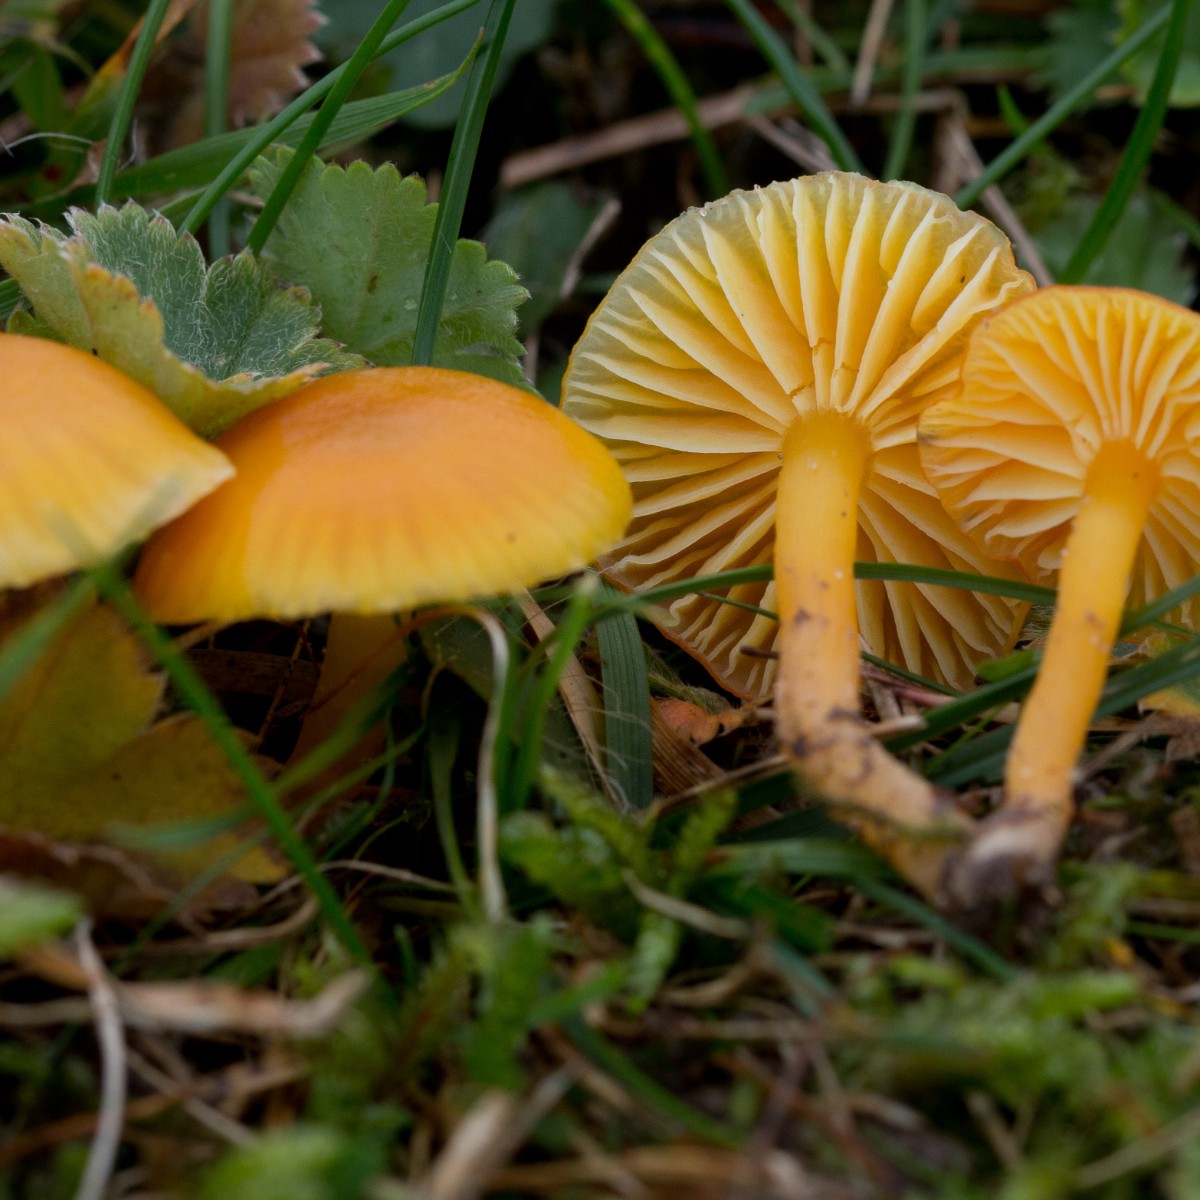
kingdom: Fungi
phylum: Basidiomycota
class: Agaricomycetes
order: Agaricales
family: Hygrophoraceae
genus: Hygrocybe
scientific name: Hygrocybe ceracea
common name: voksgul vokshat
